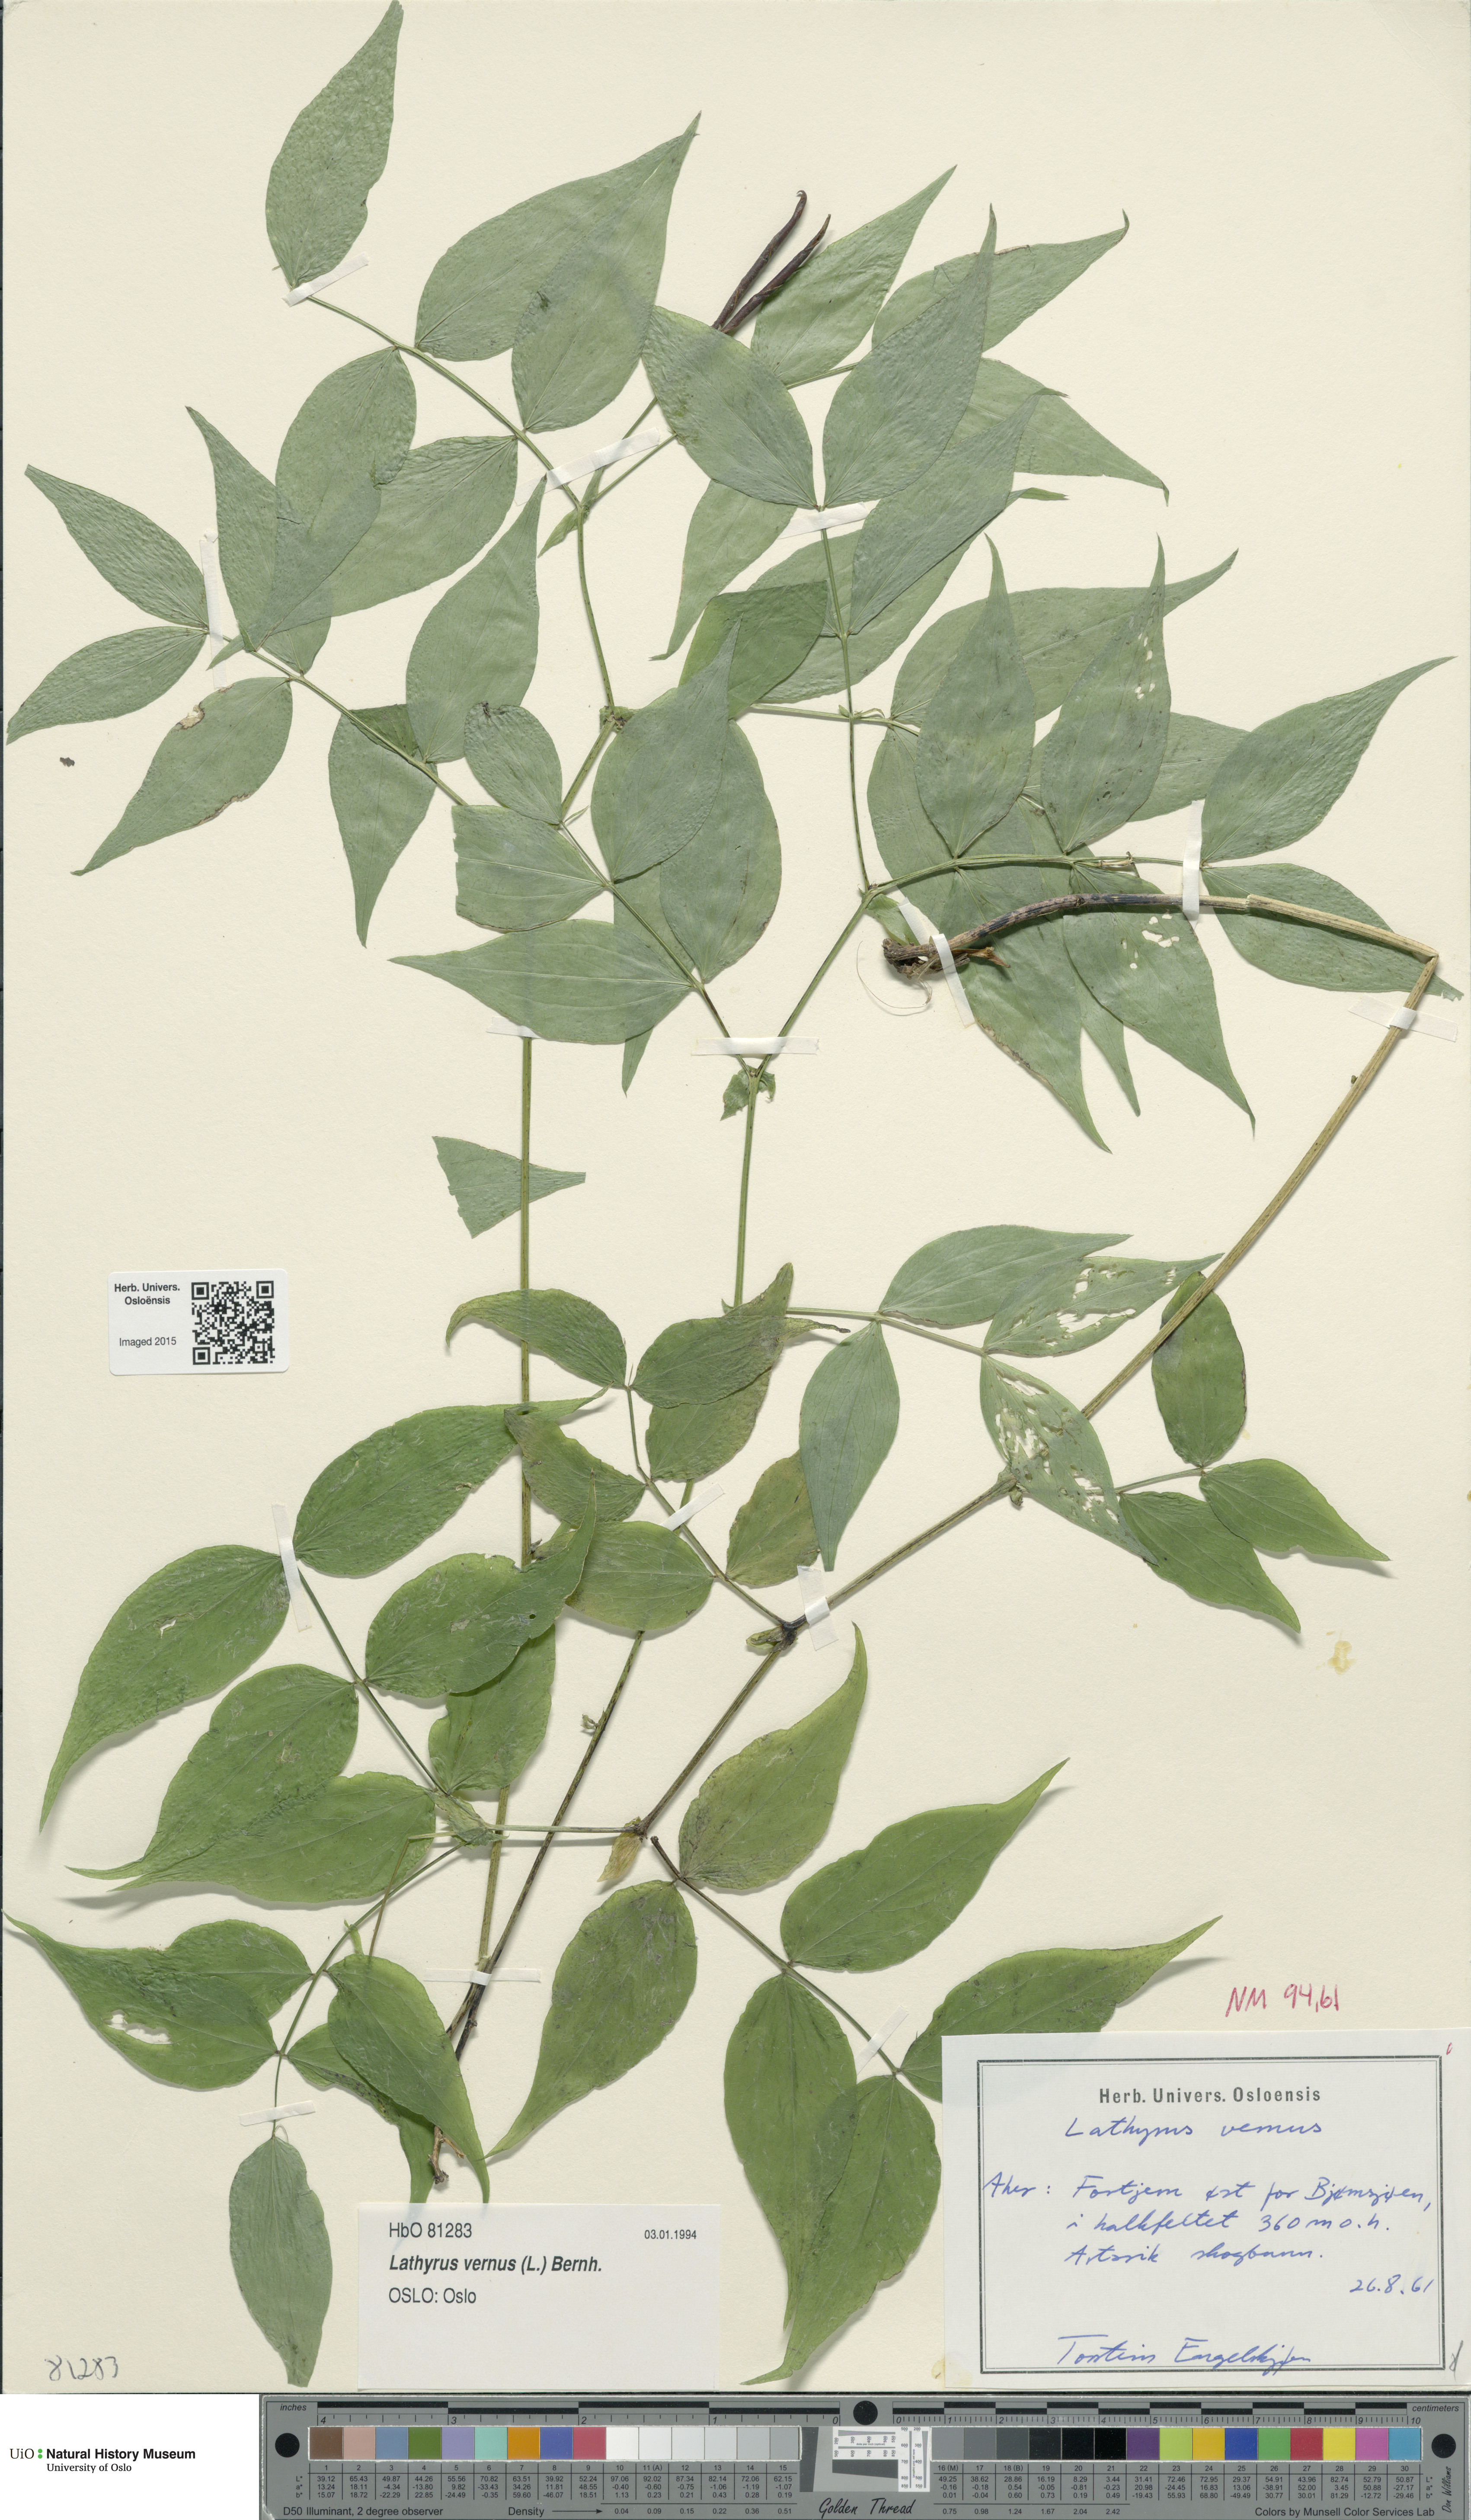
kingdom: Plantae
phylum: Tracheophyta
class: Magnoliopsida
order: Fabales
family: Fabaceae
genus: Lathyrus
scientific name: Lathyrus vernus
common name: Spring pea
